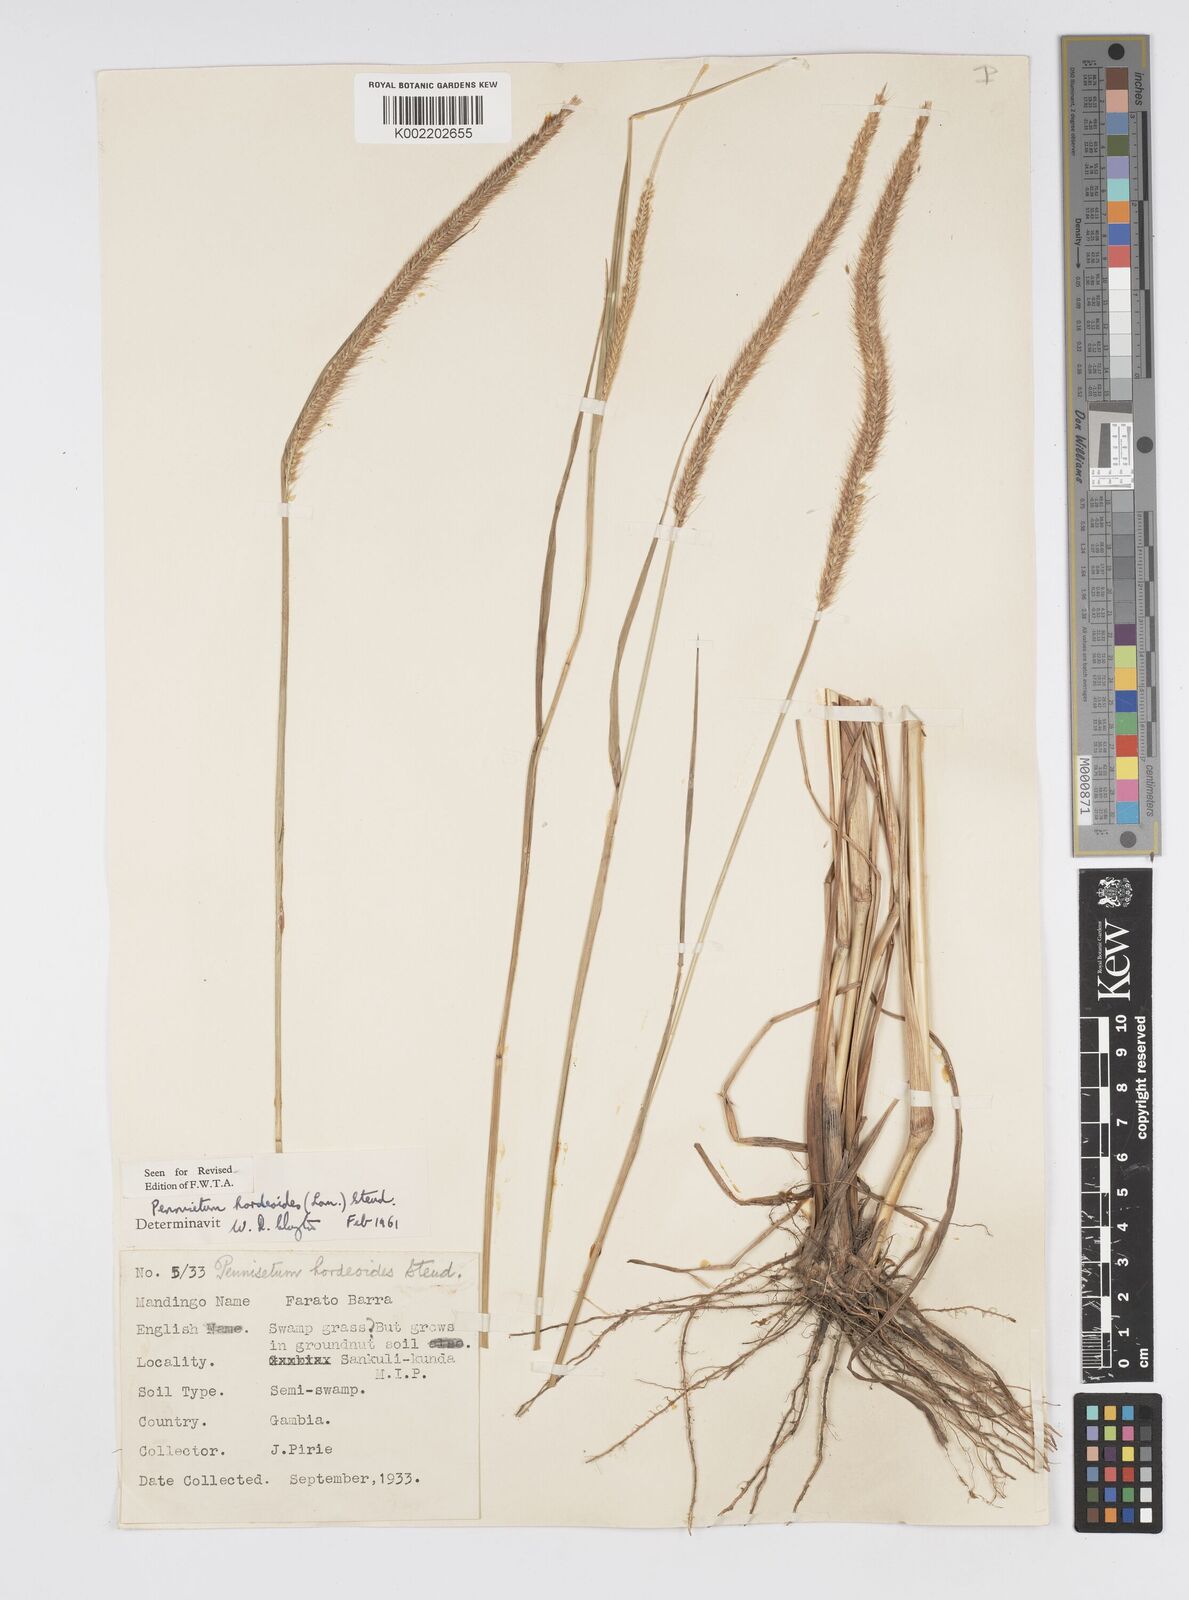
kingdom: Plantae
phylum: Tracheophyta
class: Liliopsida
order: Poales
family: Poaceae
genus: Cenchrus
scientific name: Cenchrus hordeoides
